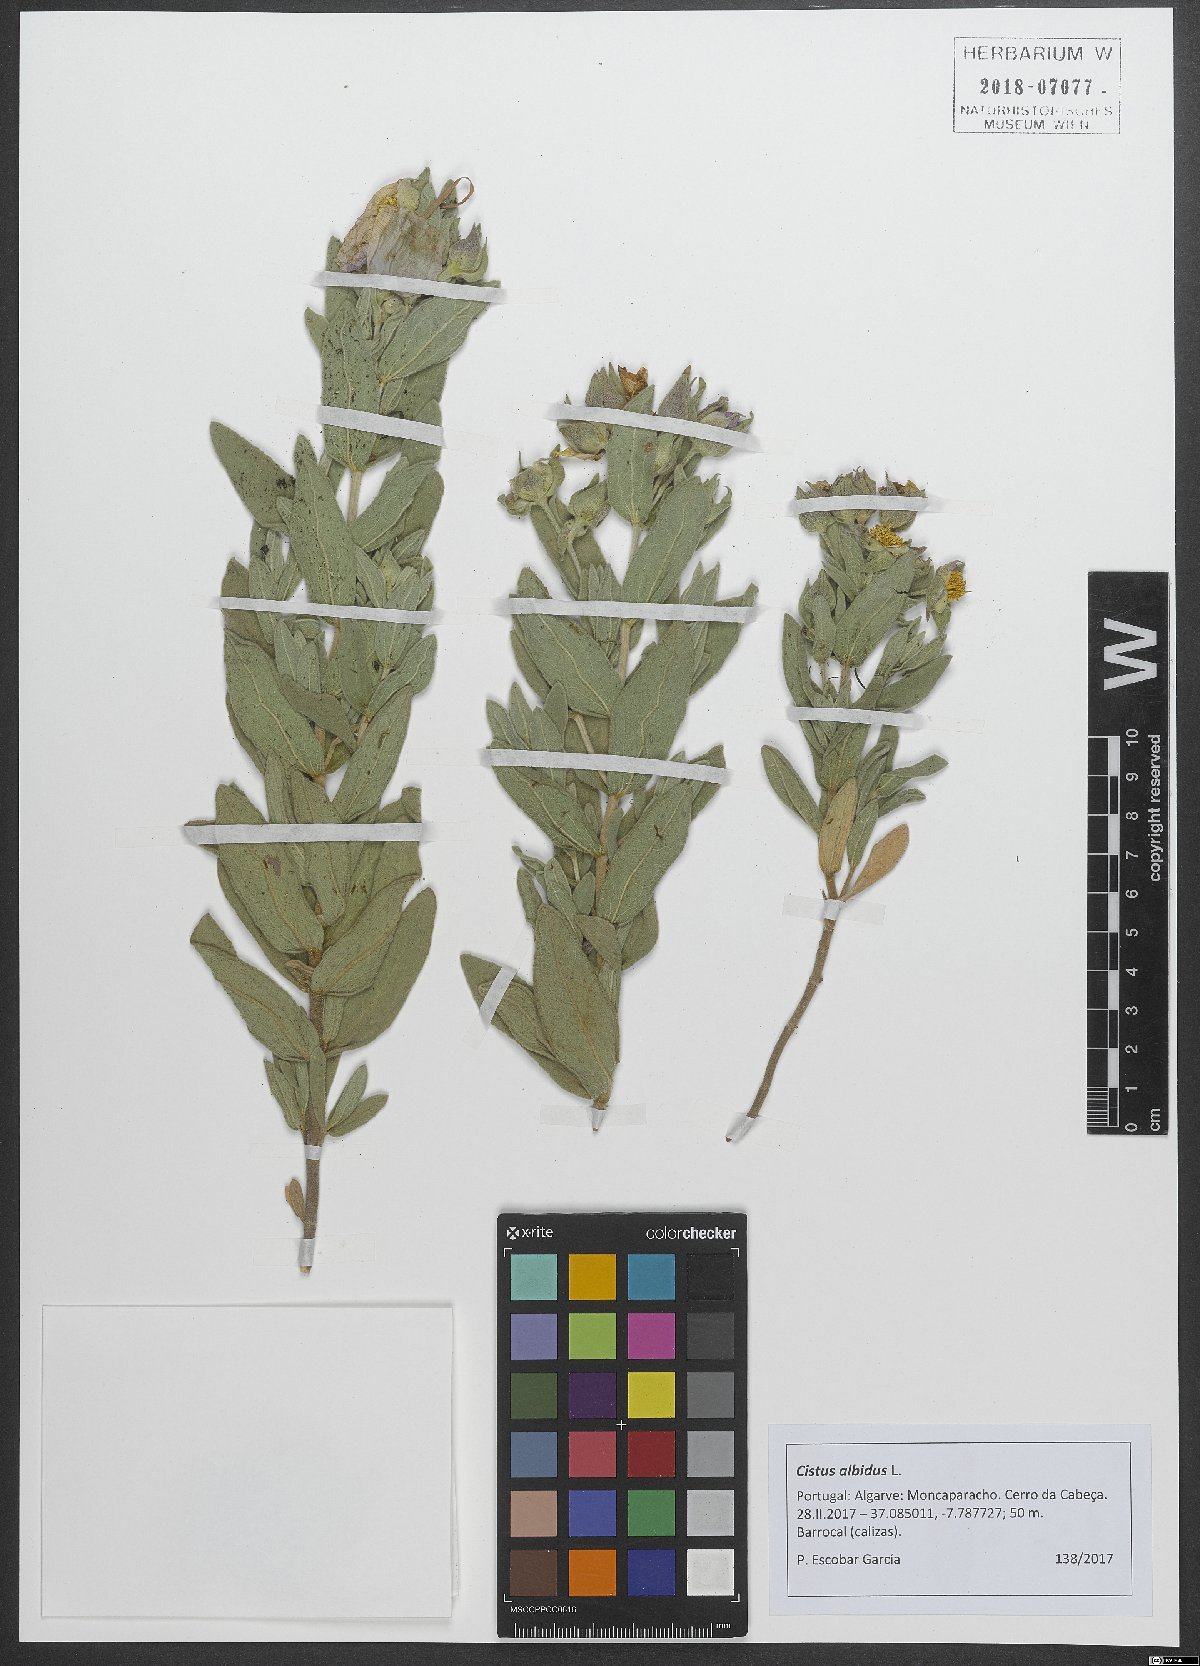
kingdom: Plantae
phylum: Tracheophyta
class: Magnoliopsida
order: Malvales
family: Cistaceae
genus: Cistus
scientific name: Cistus albidus
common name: White-leaf rock-rose
